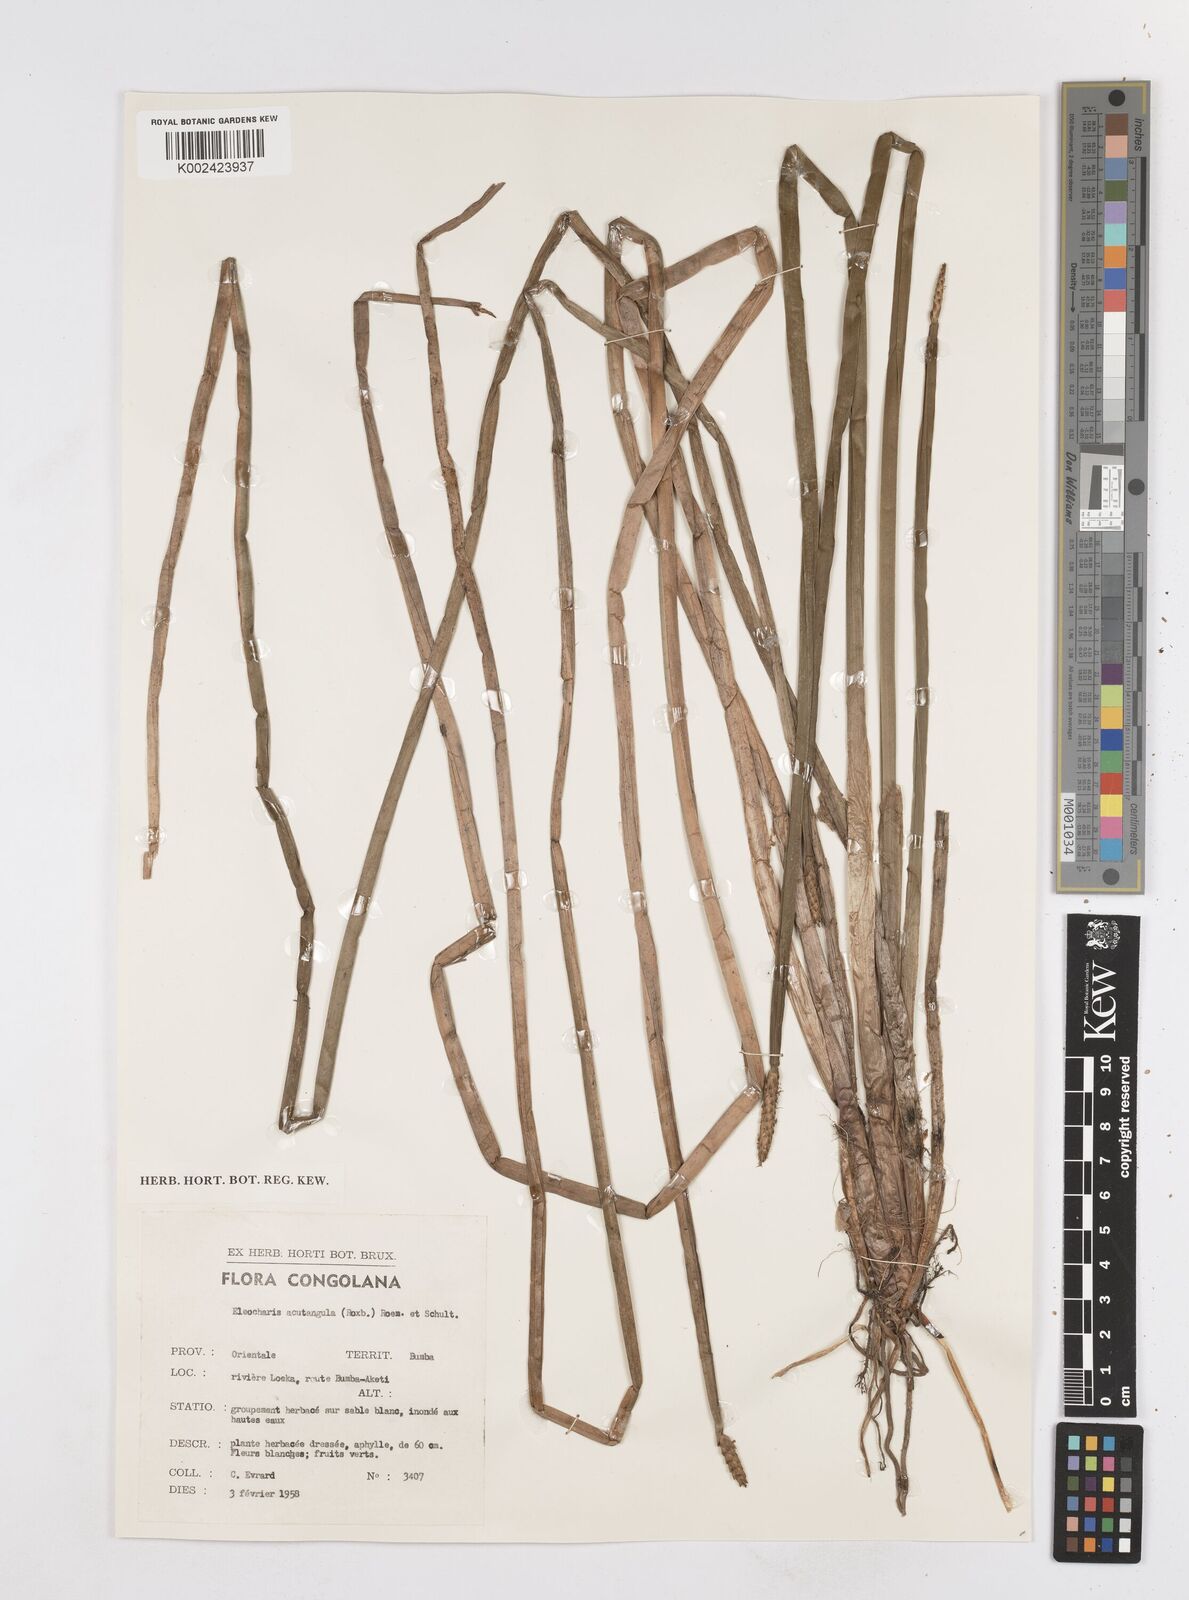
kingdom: Plantae
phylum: Tracheophyta
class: Liliopsida
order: Poales
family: Cyperaceae
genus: Eleocharis
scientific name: Eleocharis acutangula
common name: Acute spikerush
